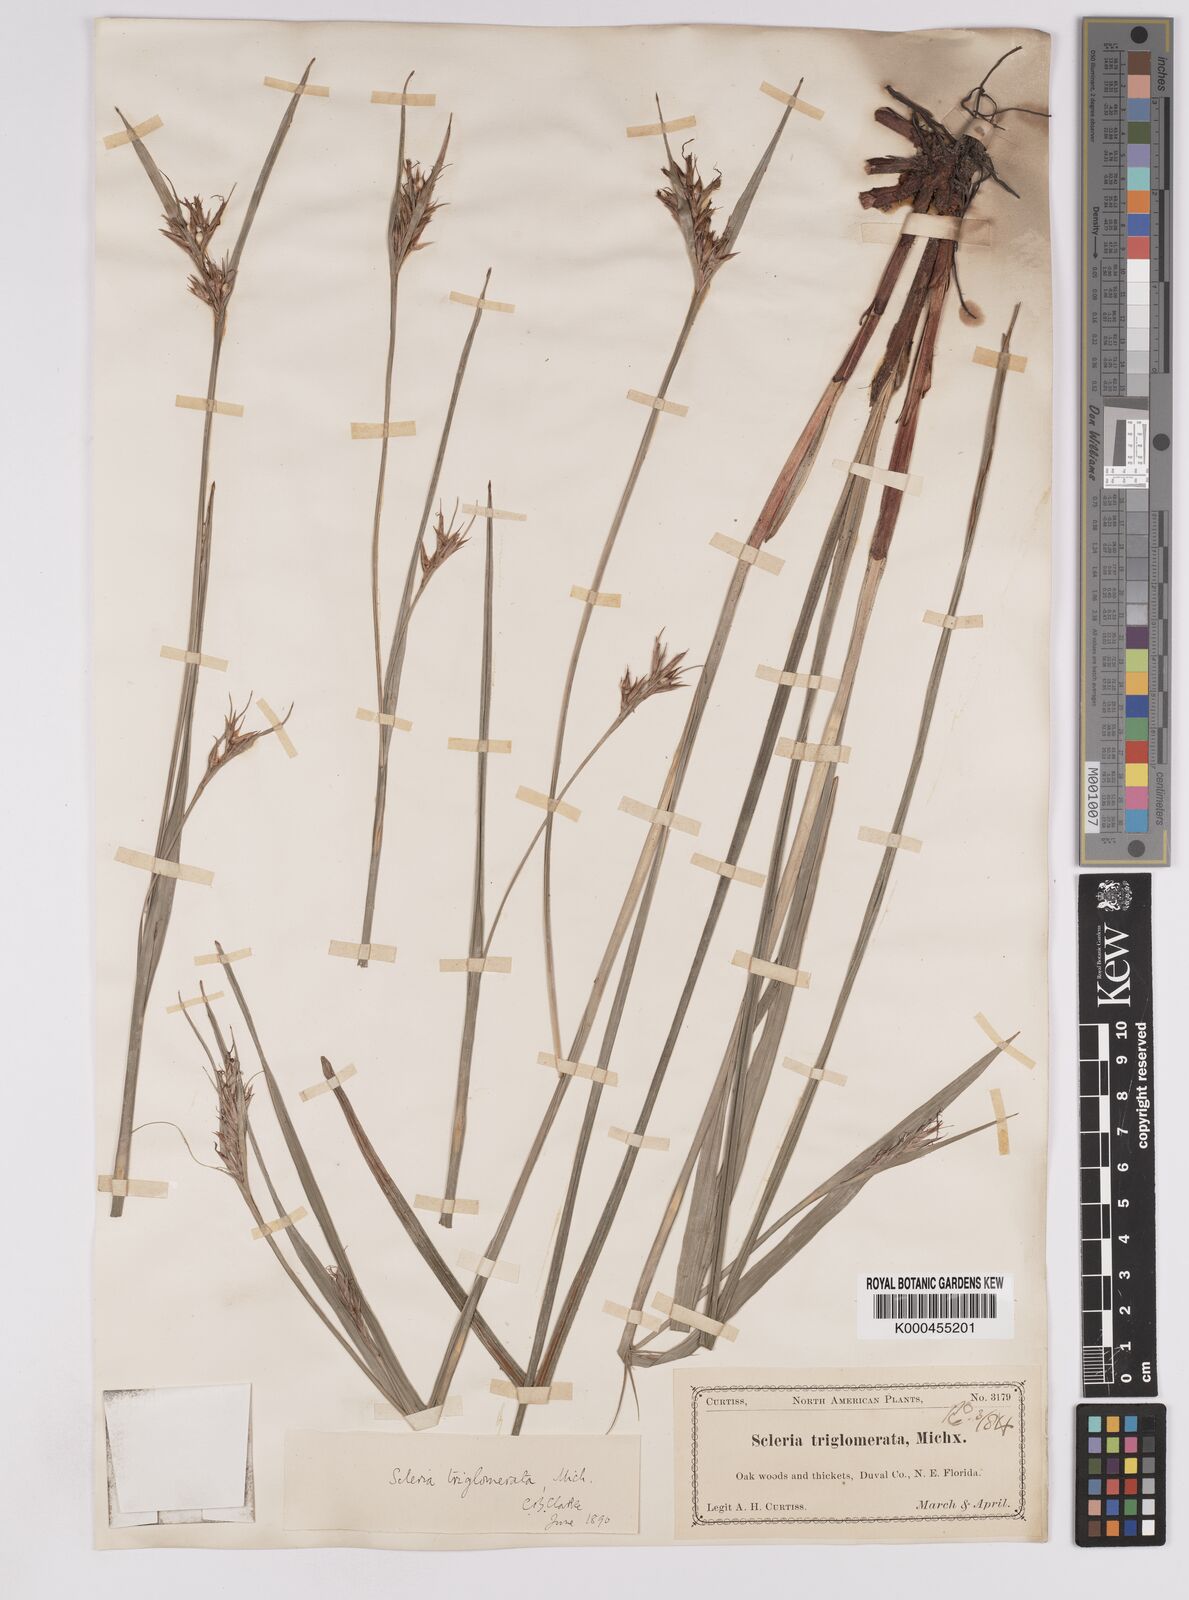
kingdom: Plantae
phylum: Tracheophyta
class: Liliopsida
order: Poales
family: Cyperaceae
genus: Scleria
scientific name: Scleria triglomerata
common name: Whip nutrush
